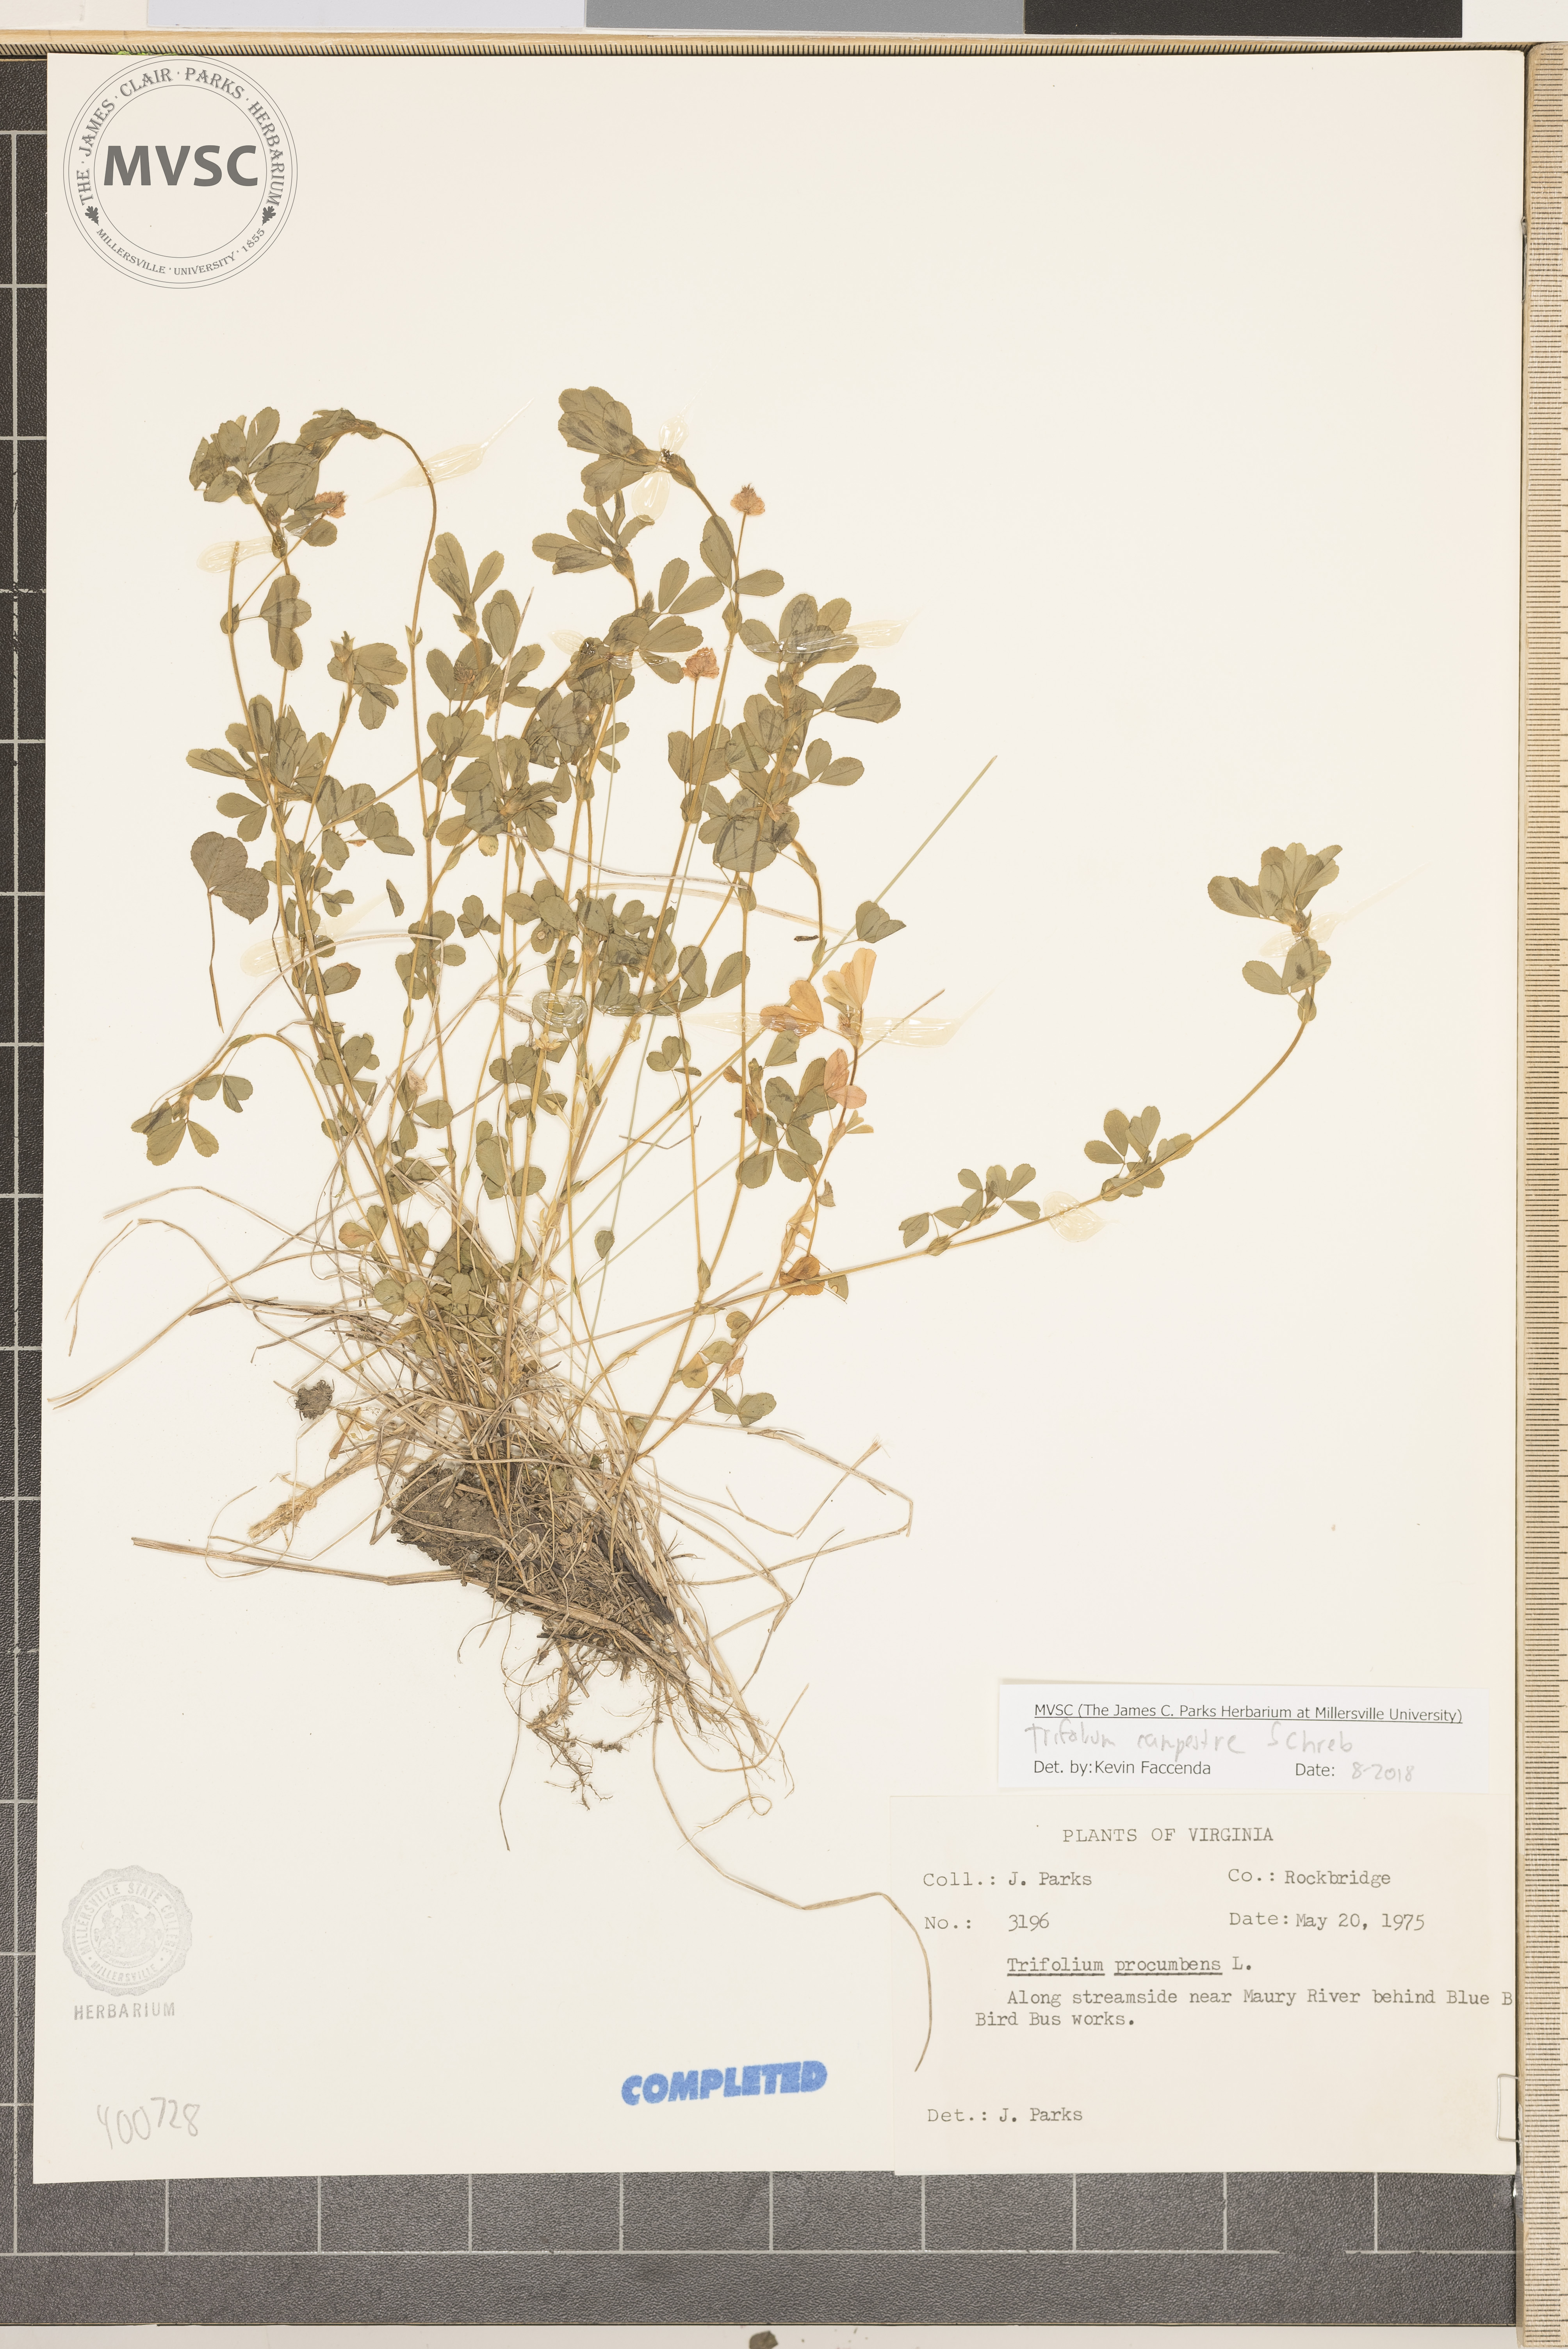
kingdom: Plantae
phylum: Tracheophyta
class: Magnoliopsida
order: Fabales
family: Fabaceae
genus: Trifolium
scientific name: Trifolium campestre
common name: clover
